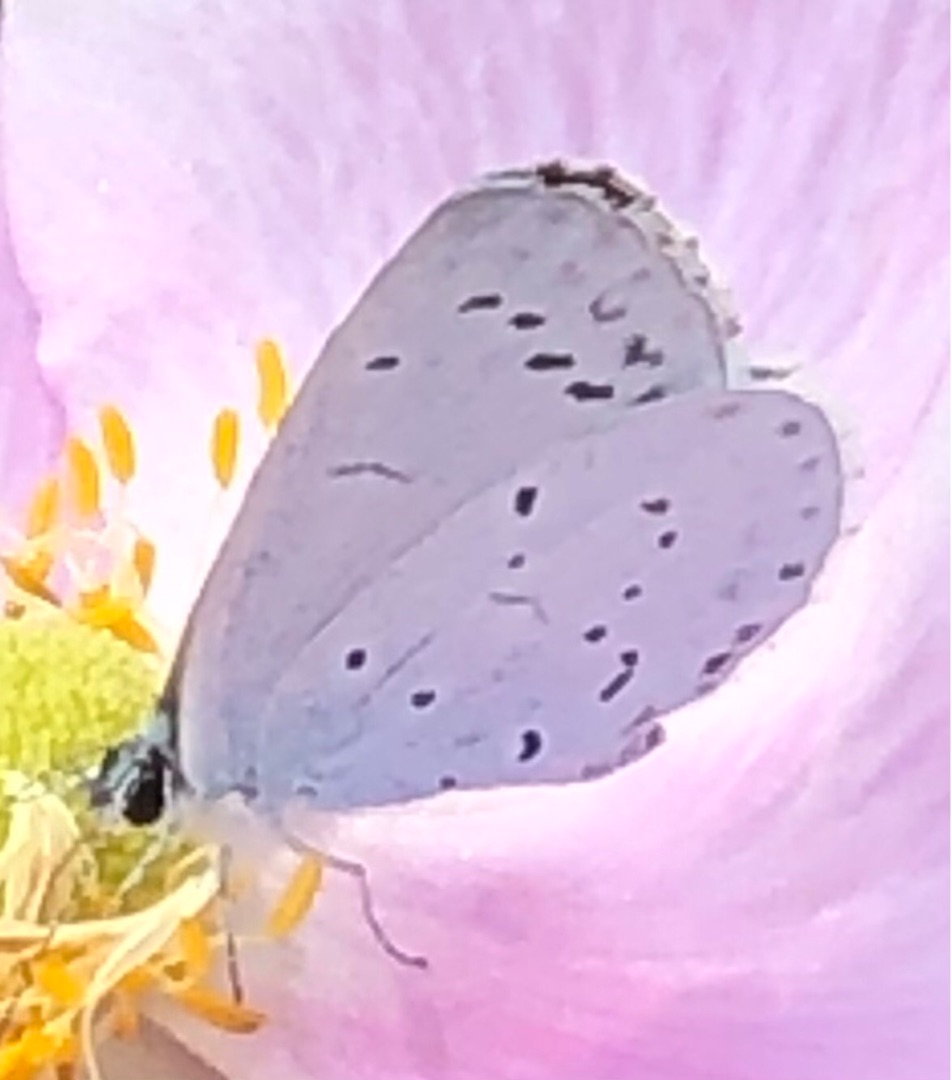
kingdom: Animalia
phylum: Arthropoda
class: Insecta
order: Lepidoptera
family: Lycaenidae
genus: Celastrina
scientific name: Celastrina argiolus
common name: Skovblåfugl
